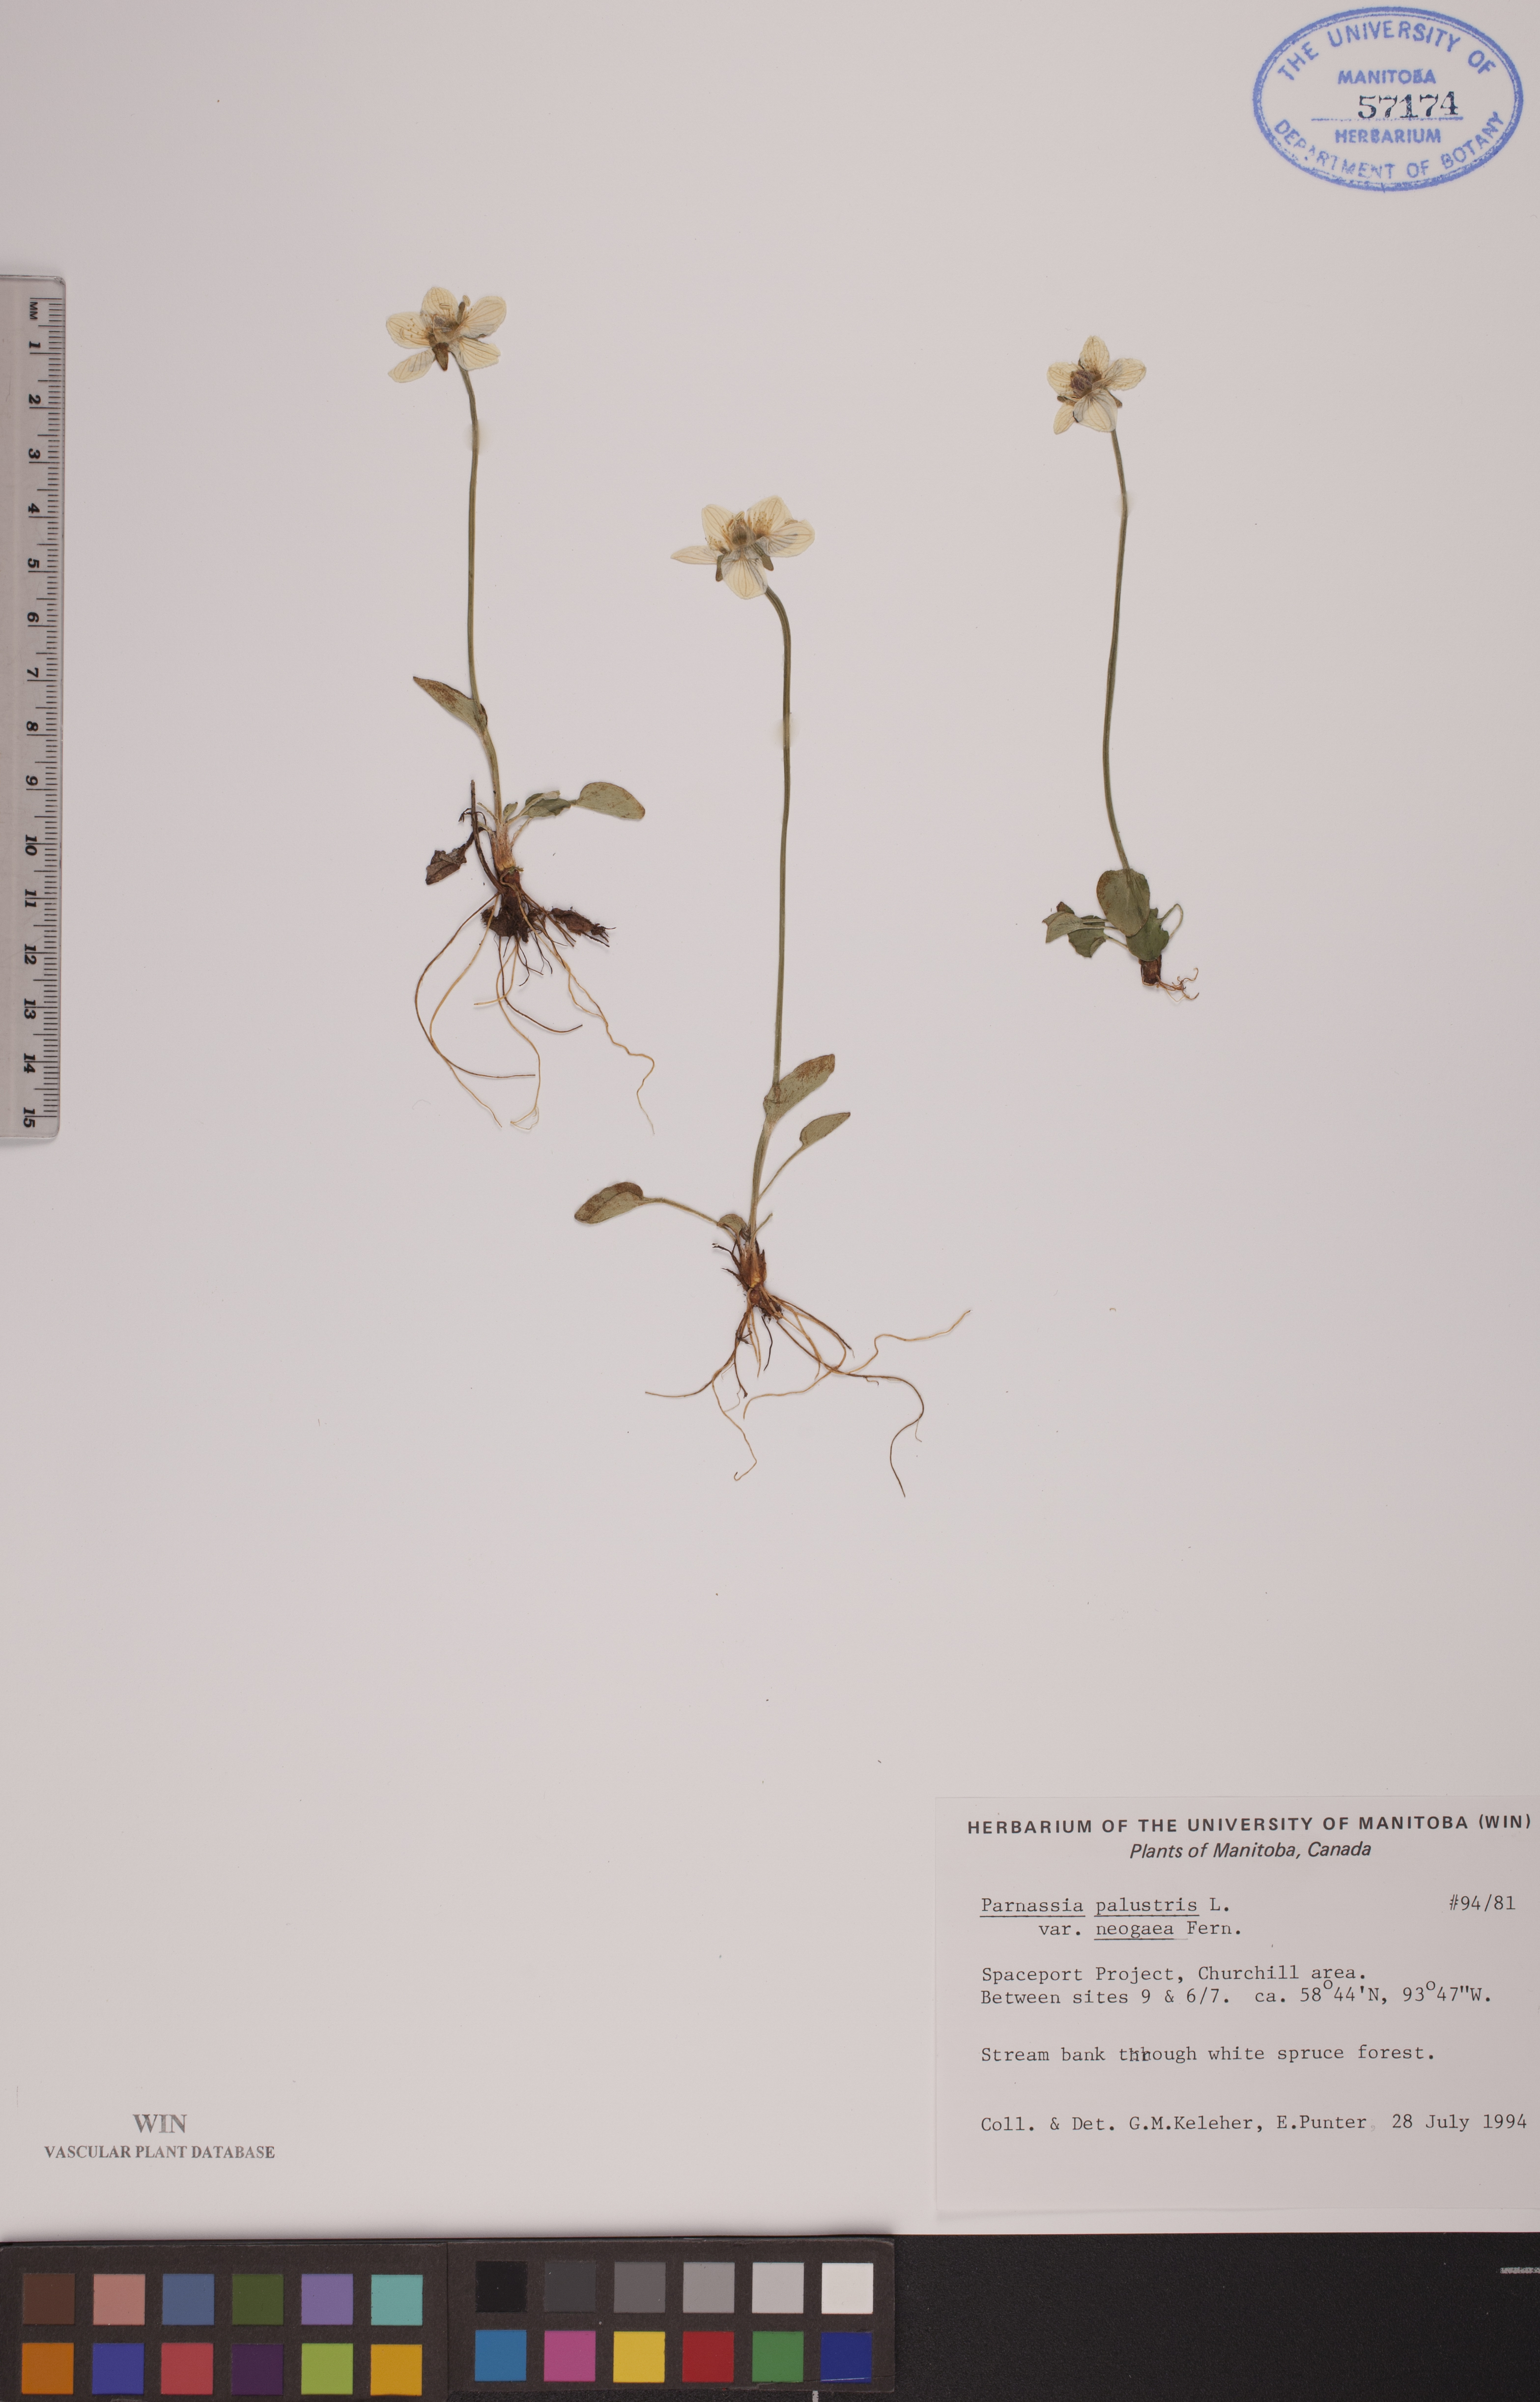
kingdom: Plantae
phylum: Tracheophyta
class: Magnoliopsida
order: Celastrales
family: Parnassiaceae
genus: Parnassia
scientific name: Parnassia palustris
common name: Grass-of-parnassus
